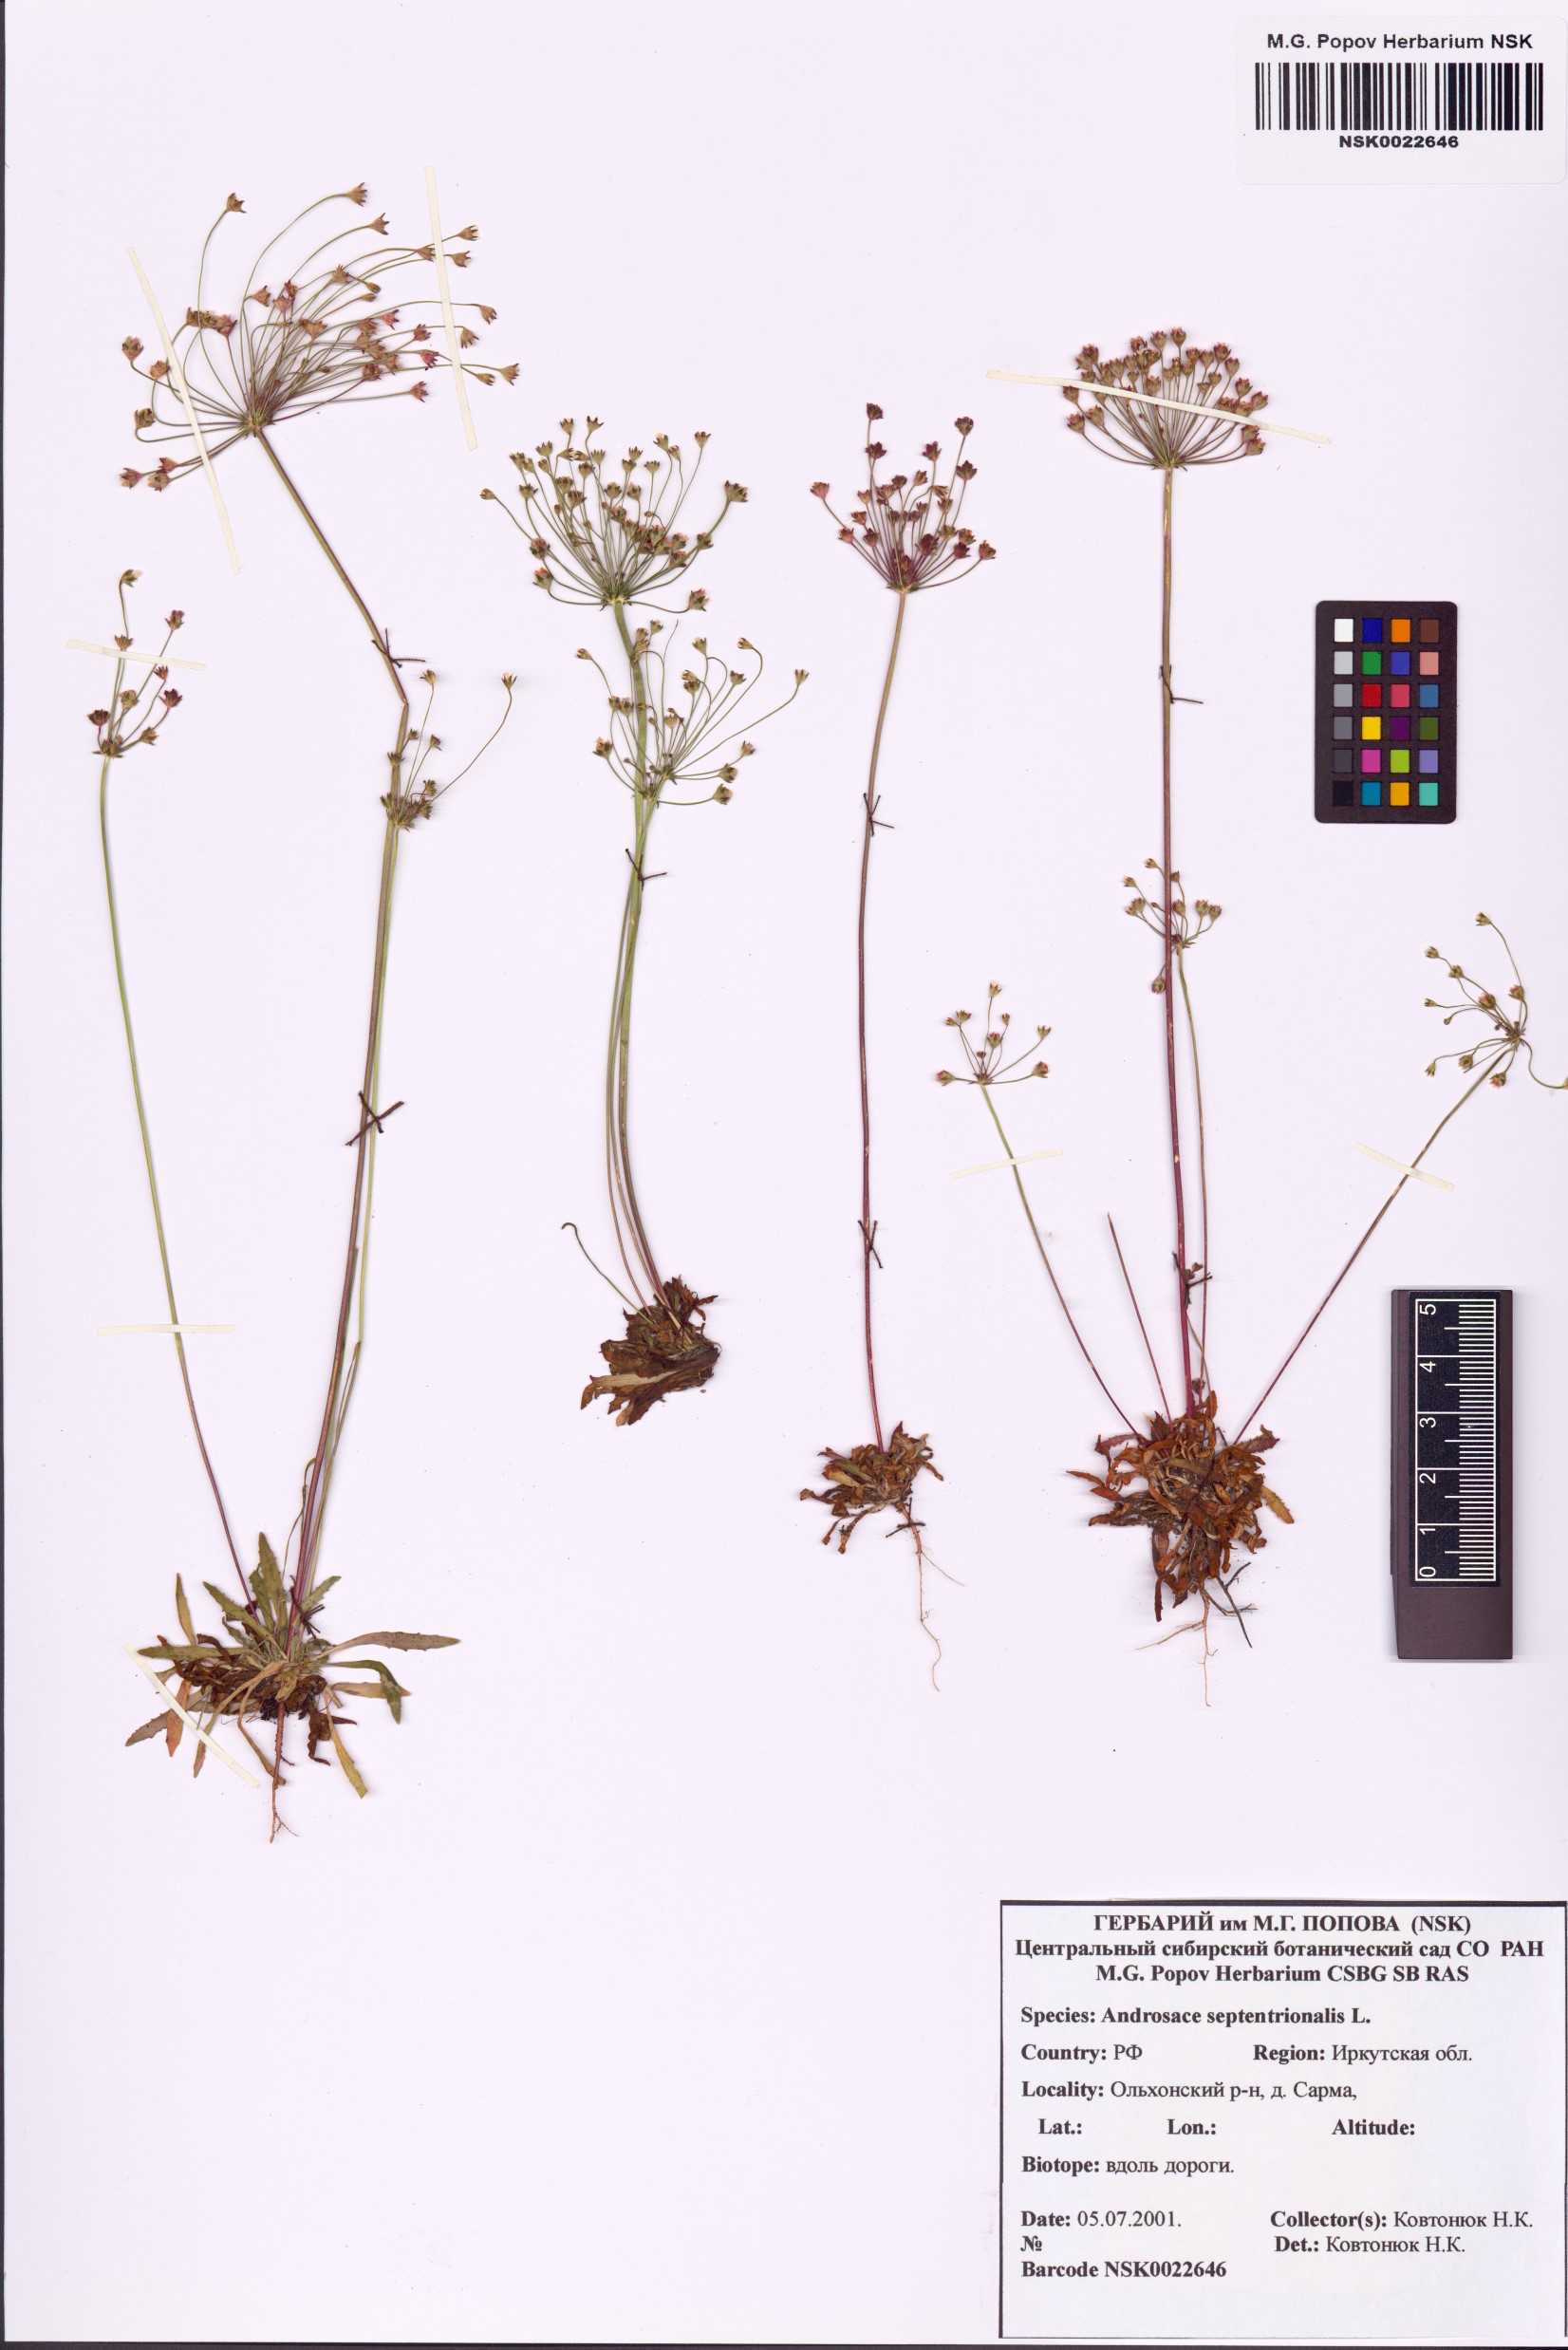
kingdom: Plantae
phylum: Tracheophyta
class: Magnoliopsida
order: Ericales
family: Primulaceae
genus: Androsace
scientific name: Androsace septentrionalis
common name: Hairy northern fairy-candelabra
